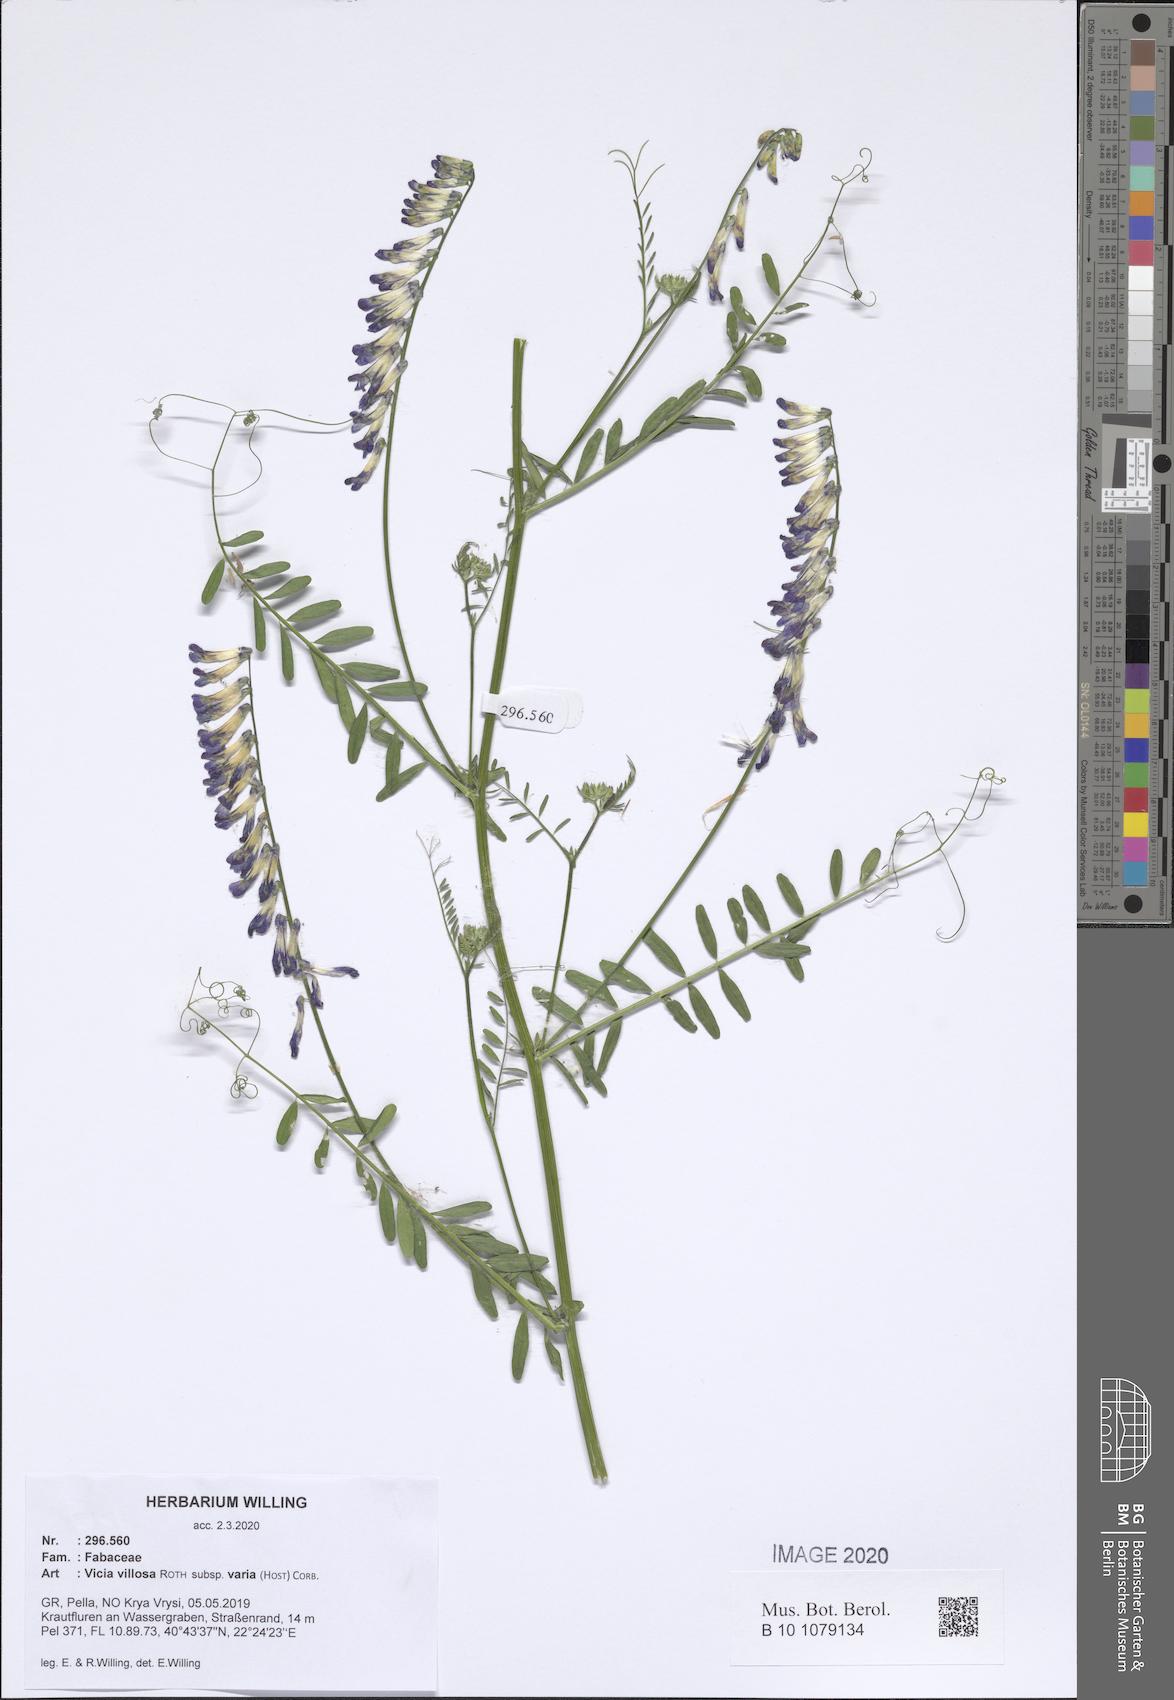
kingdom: Plantae
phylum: Tracheophyta
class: Magnoliopsida
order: Fabales
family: Fabaceae
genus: Vicia
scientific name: Vicia villosa
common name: Fodder vetch
